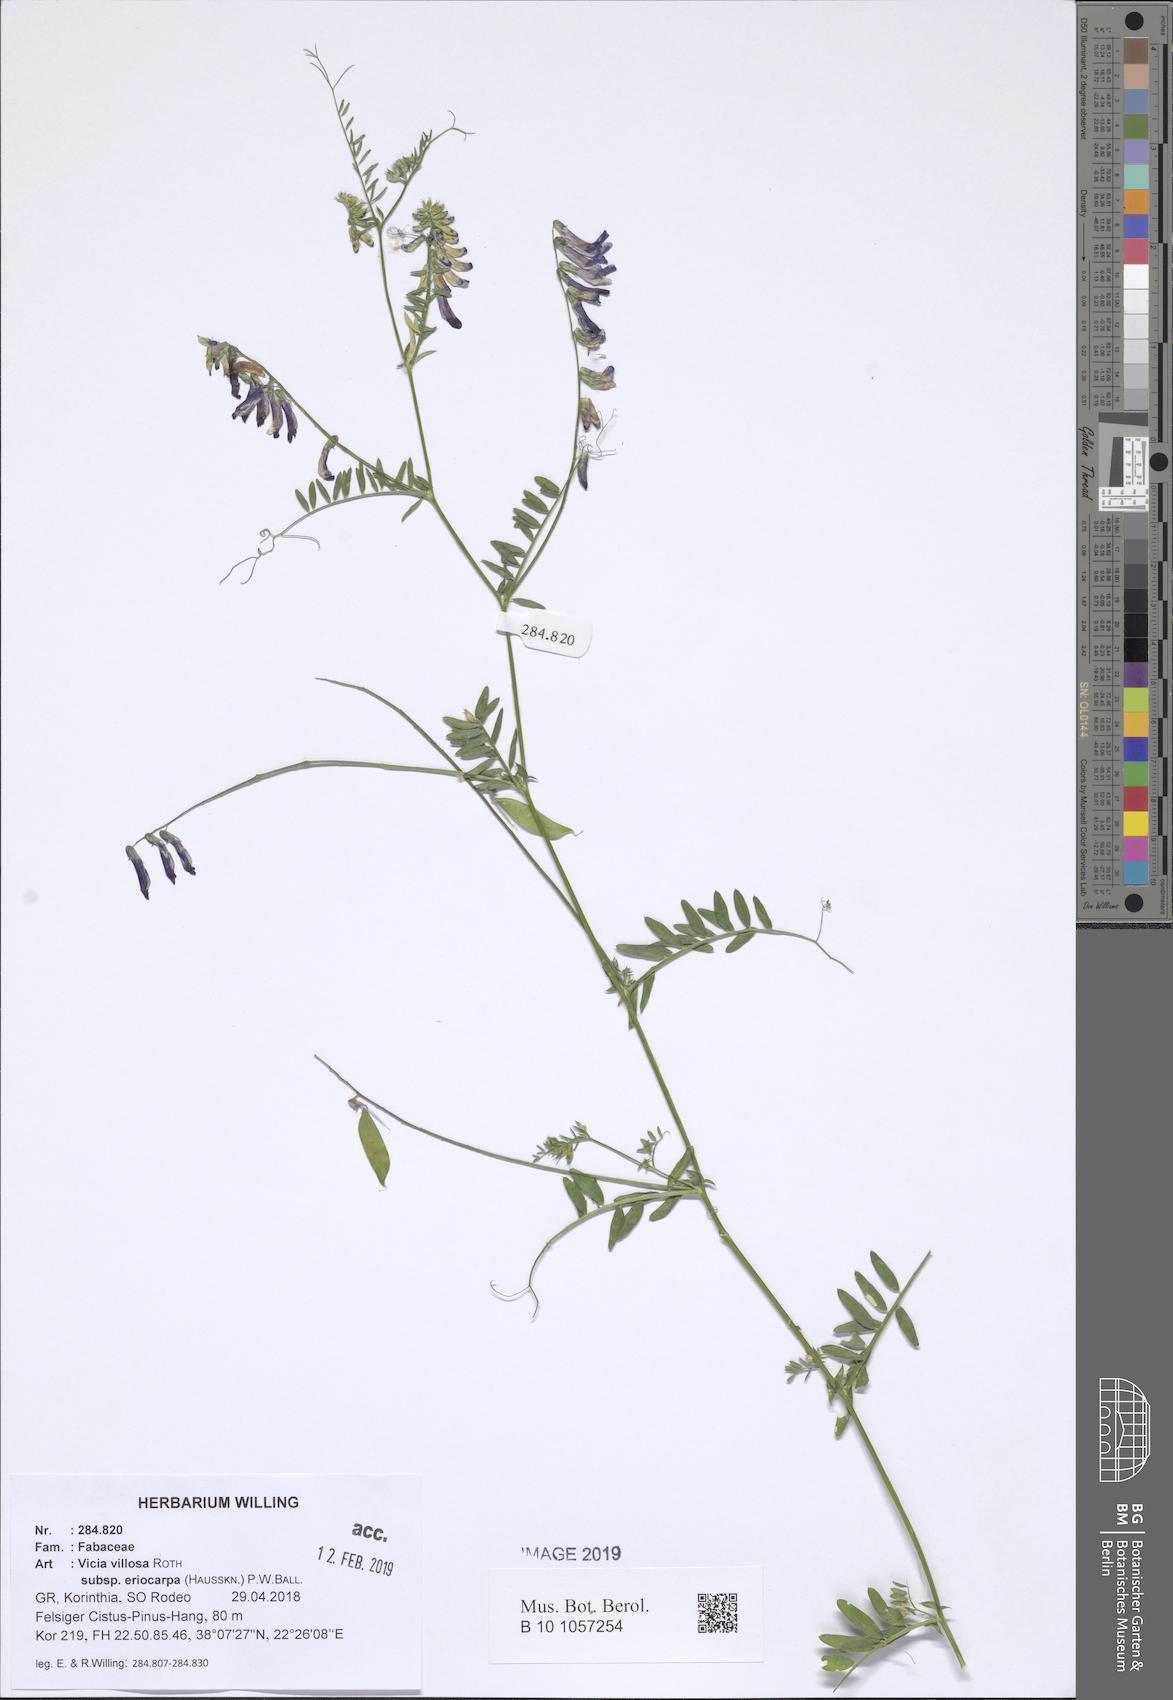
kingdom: Plantae
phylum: Tracheophyta
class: Magnoliopsida
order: Fabales
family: Fabaceae
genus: Vicia
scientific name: Vicia eriocarpa
